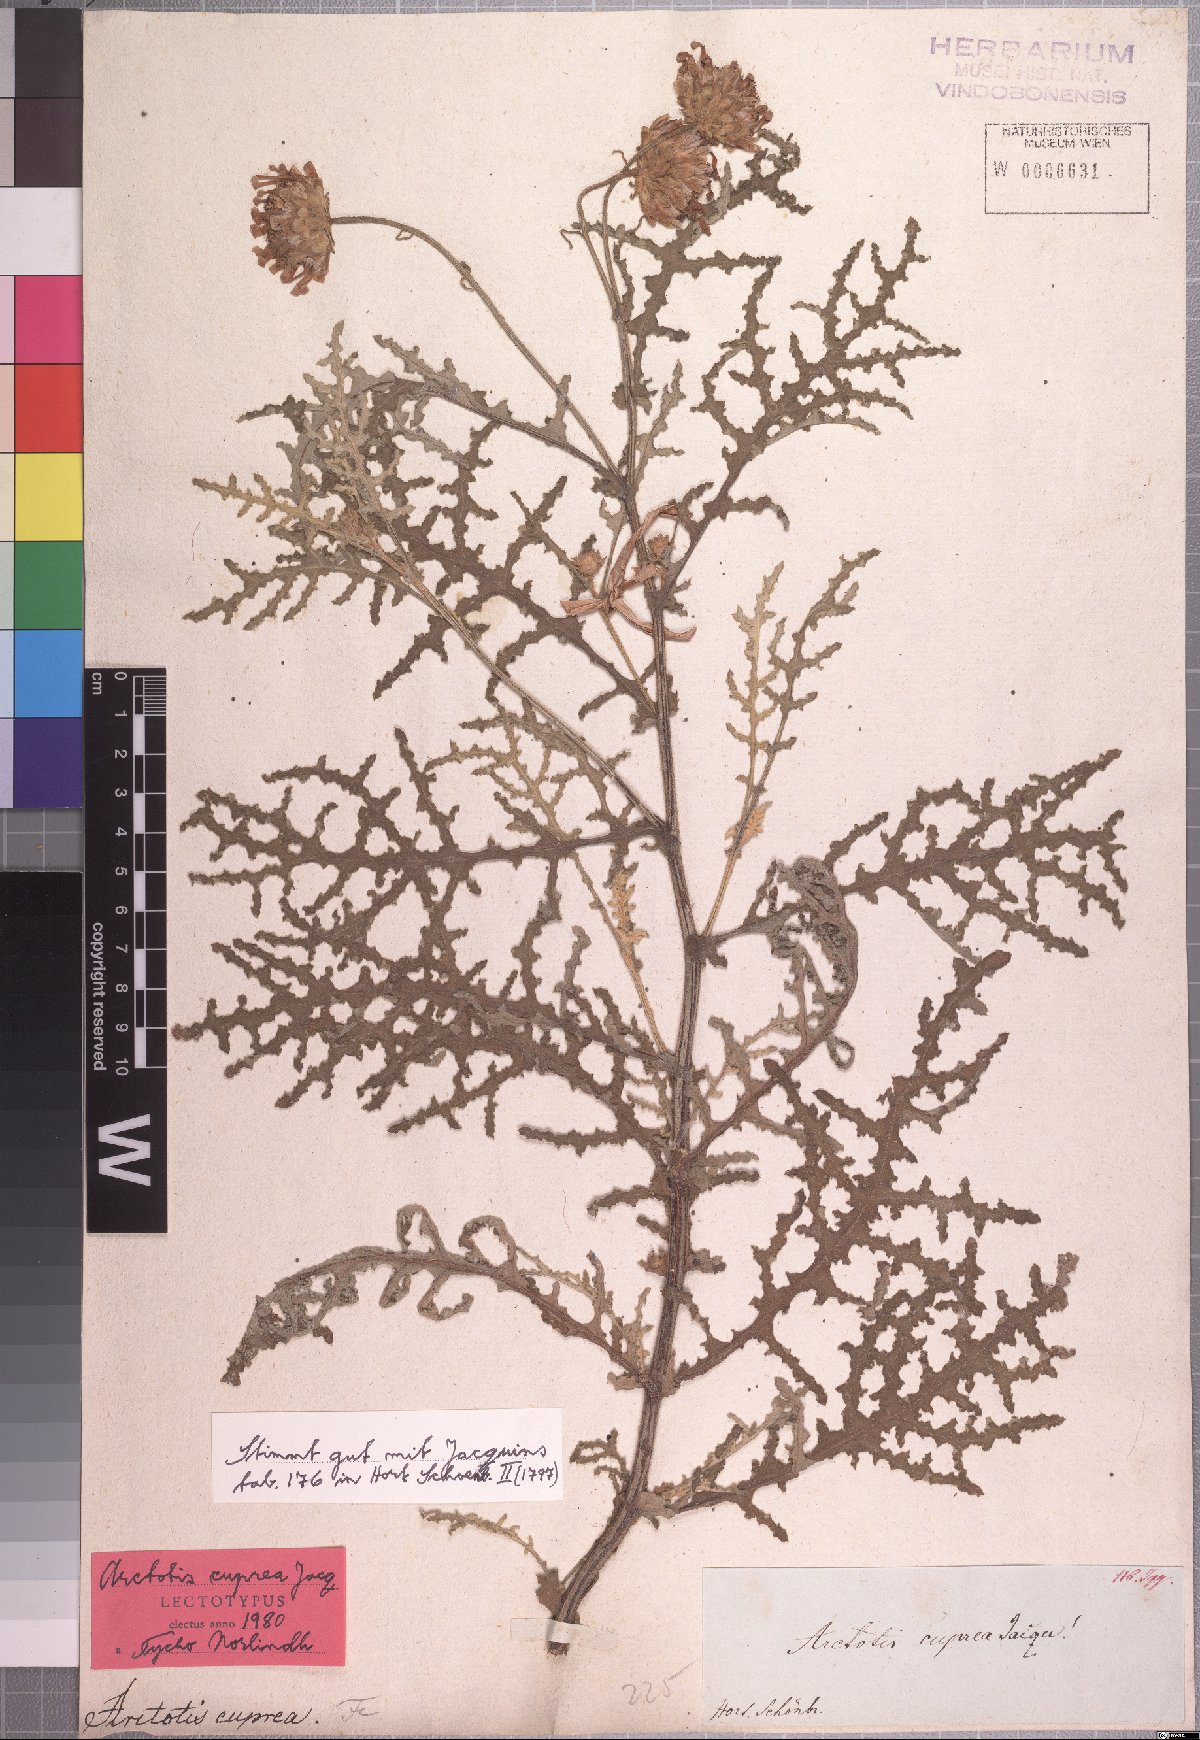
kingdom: Plantae
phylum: Tracheophyta
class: Magnoliopsida
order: Asterales
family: Asteraceae
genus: Arctotis
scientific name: Arctotis laciniata
